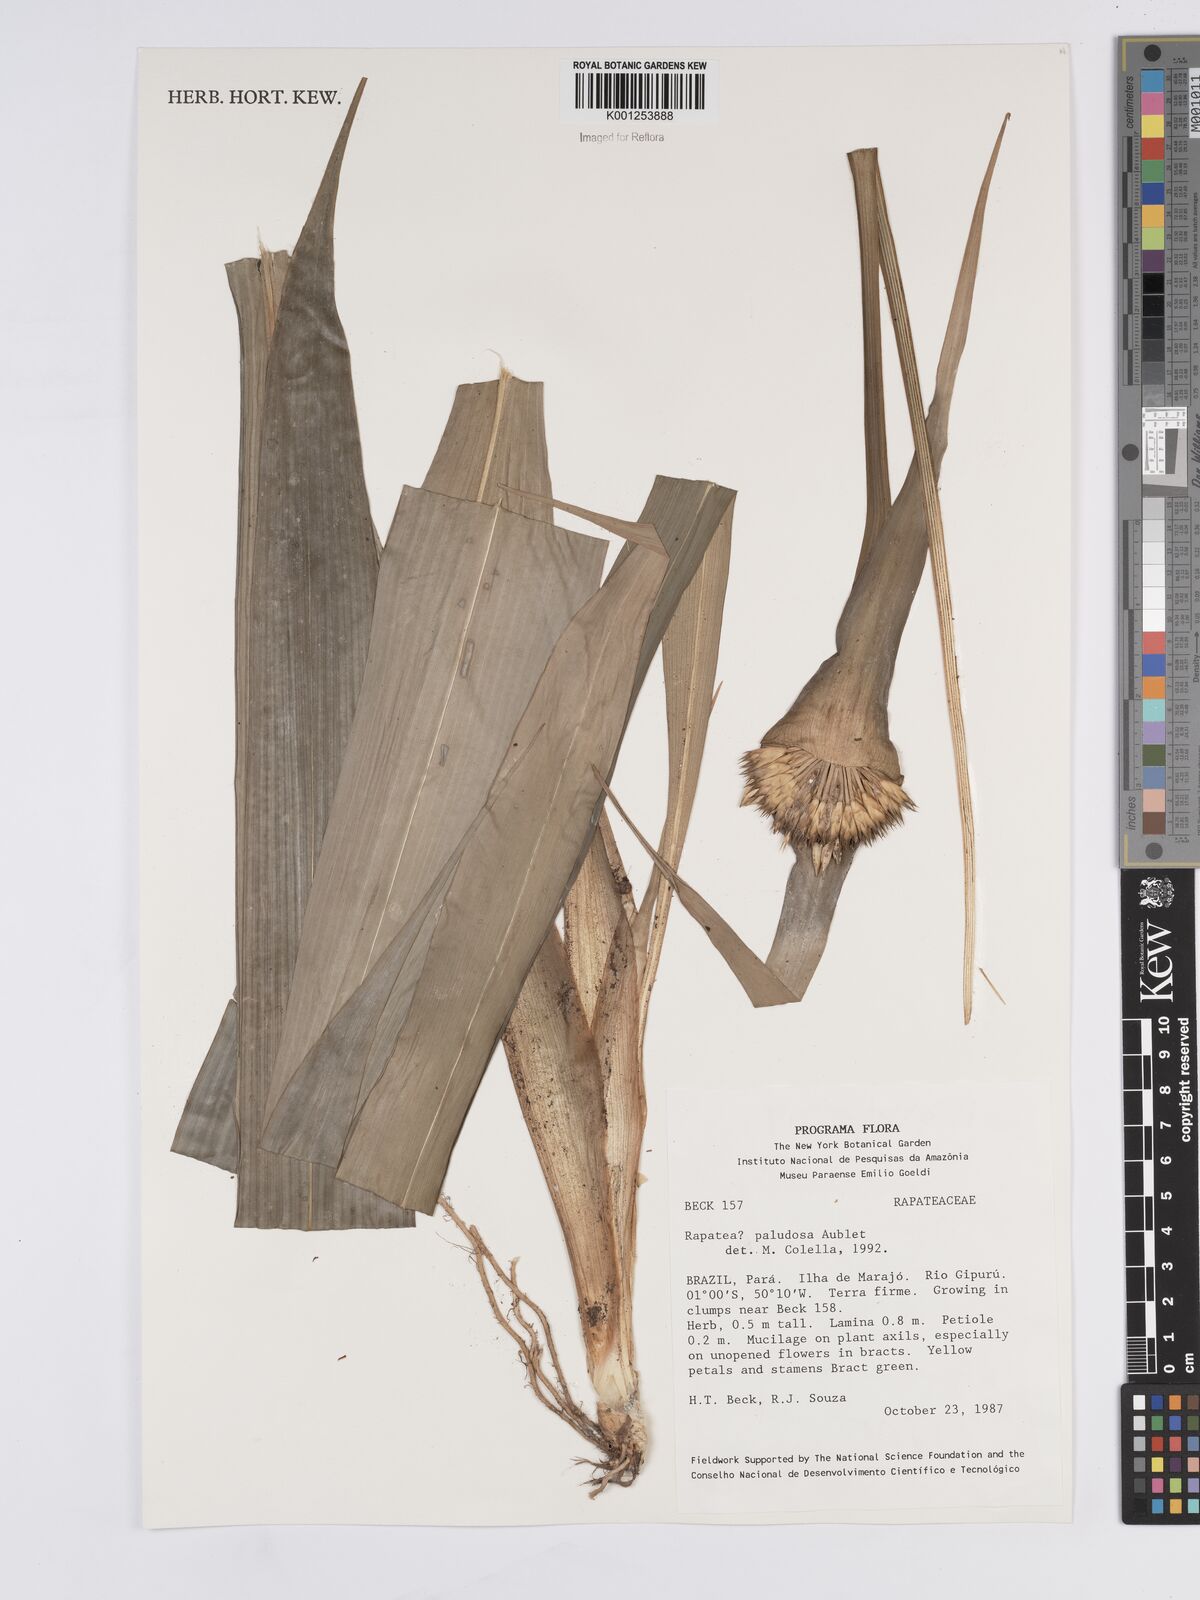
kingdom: Plantae
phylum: Tracheophyta
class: Liliopsida
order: Poales
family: Rapateaceae
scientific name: Rapateaceae
